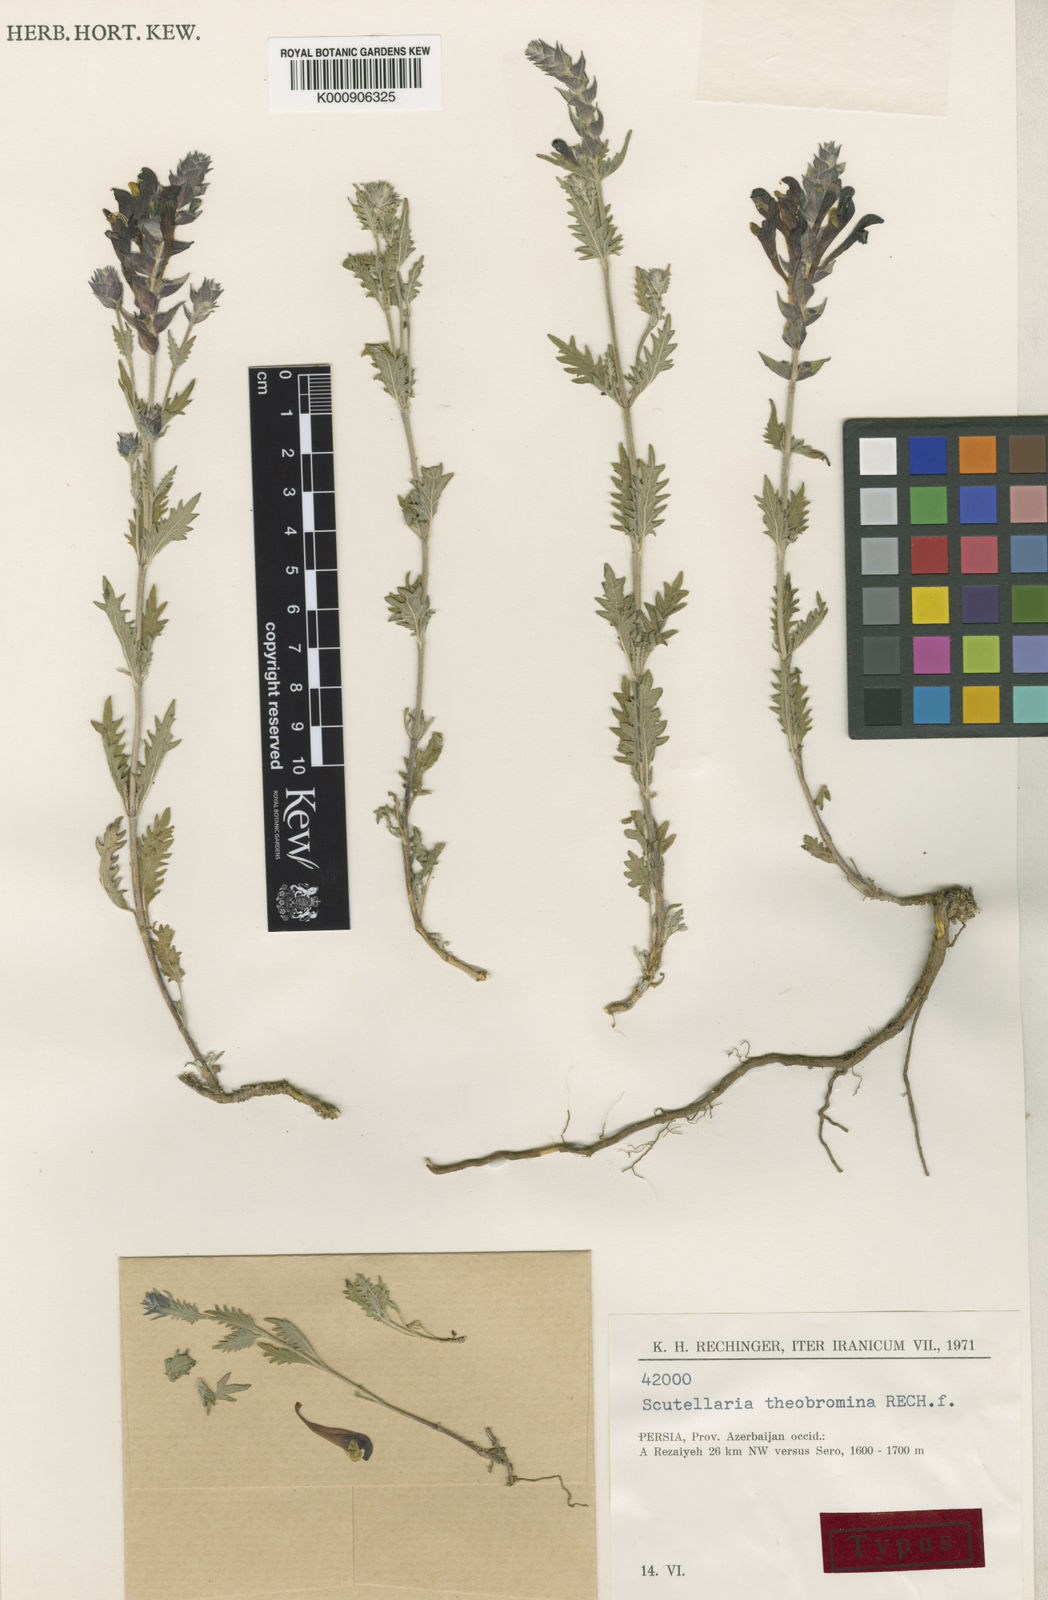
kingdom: Plantae
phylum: Tracheophyta
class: Magnoliopsida
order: Lamiales
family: Lamiaceae
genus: Scutellaria
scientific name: Scutellaria theobromina
